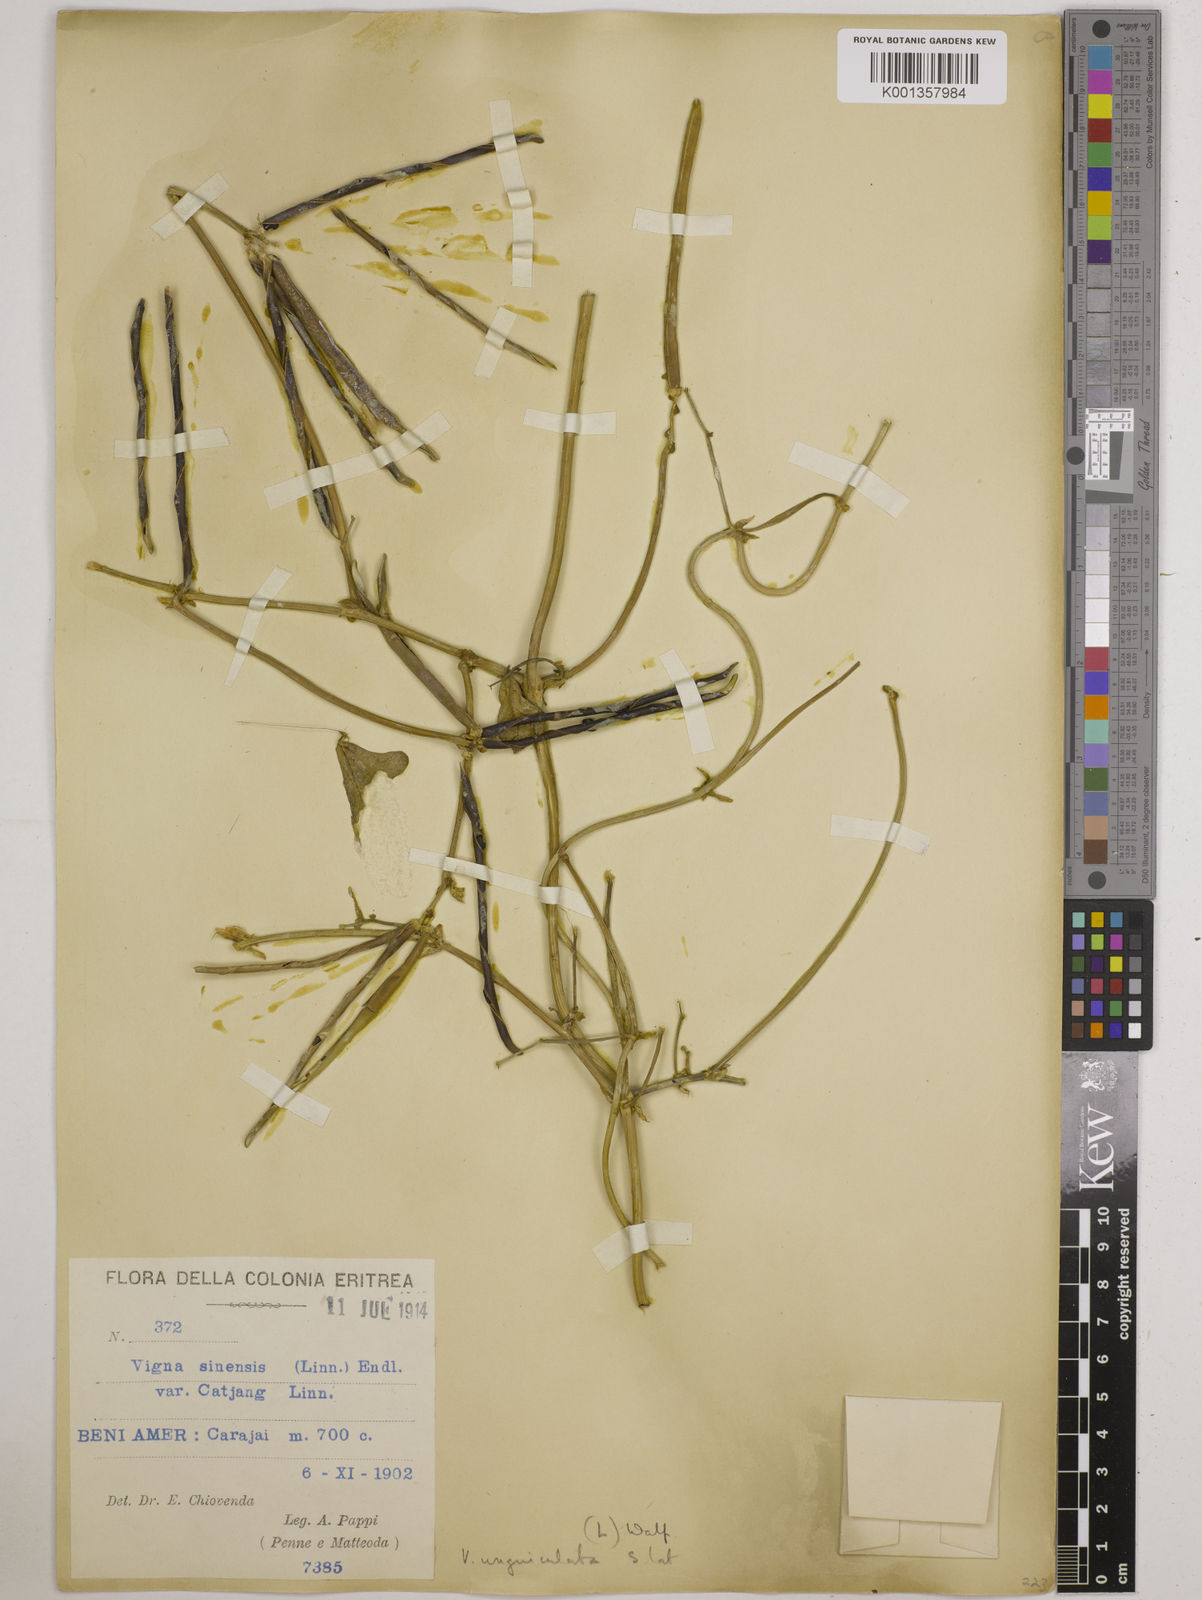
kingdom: Plantae
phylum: Tracheophyta
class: Magnoliopsida
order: Fabales
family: Fabaceae
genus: Vigna
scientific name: Vigna
